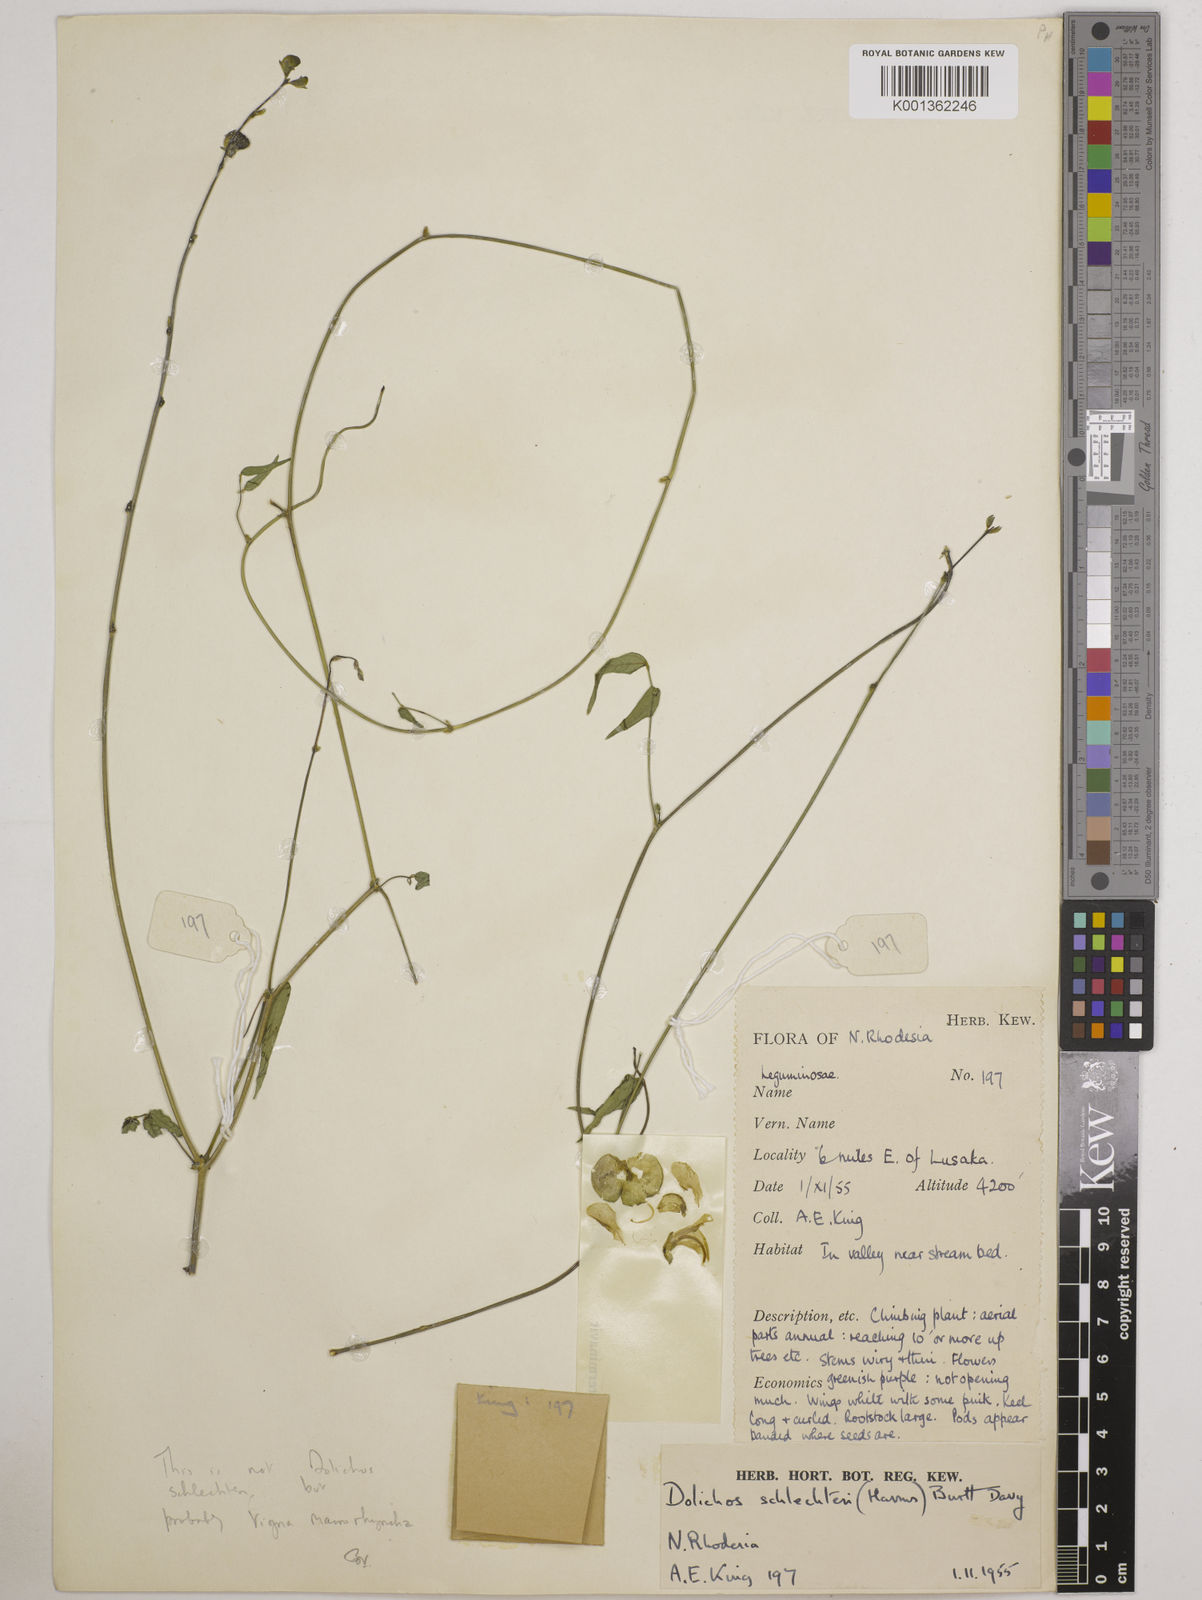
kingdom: Plantae
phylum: Tracheophyta
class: Magnoliopsida
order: Fabales
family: Fabaceae
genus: Wajira
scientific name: Wajira grahamiana
